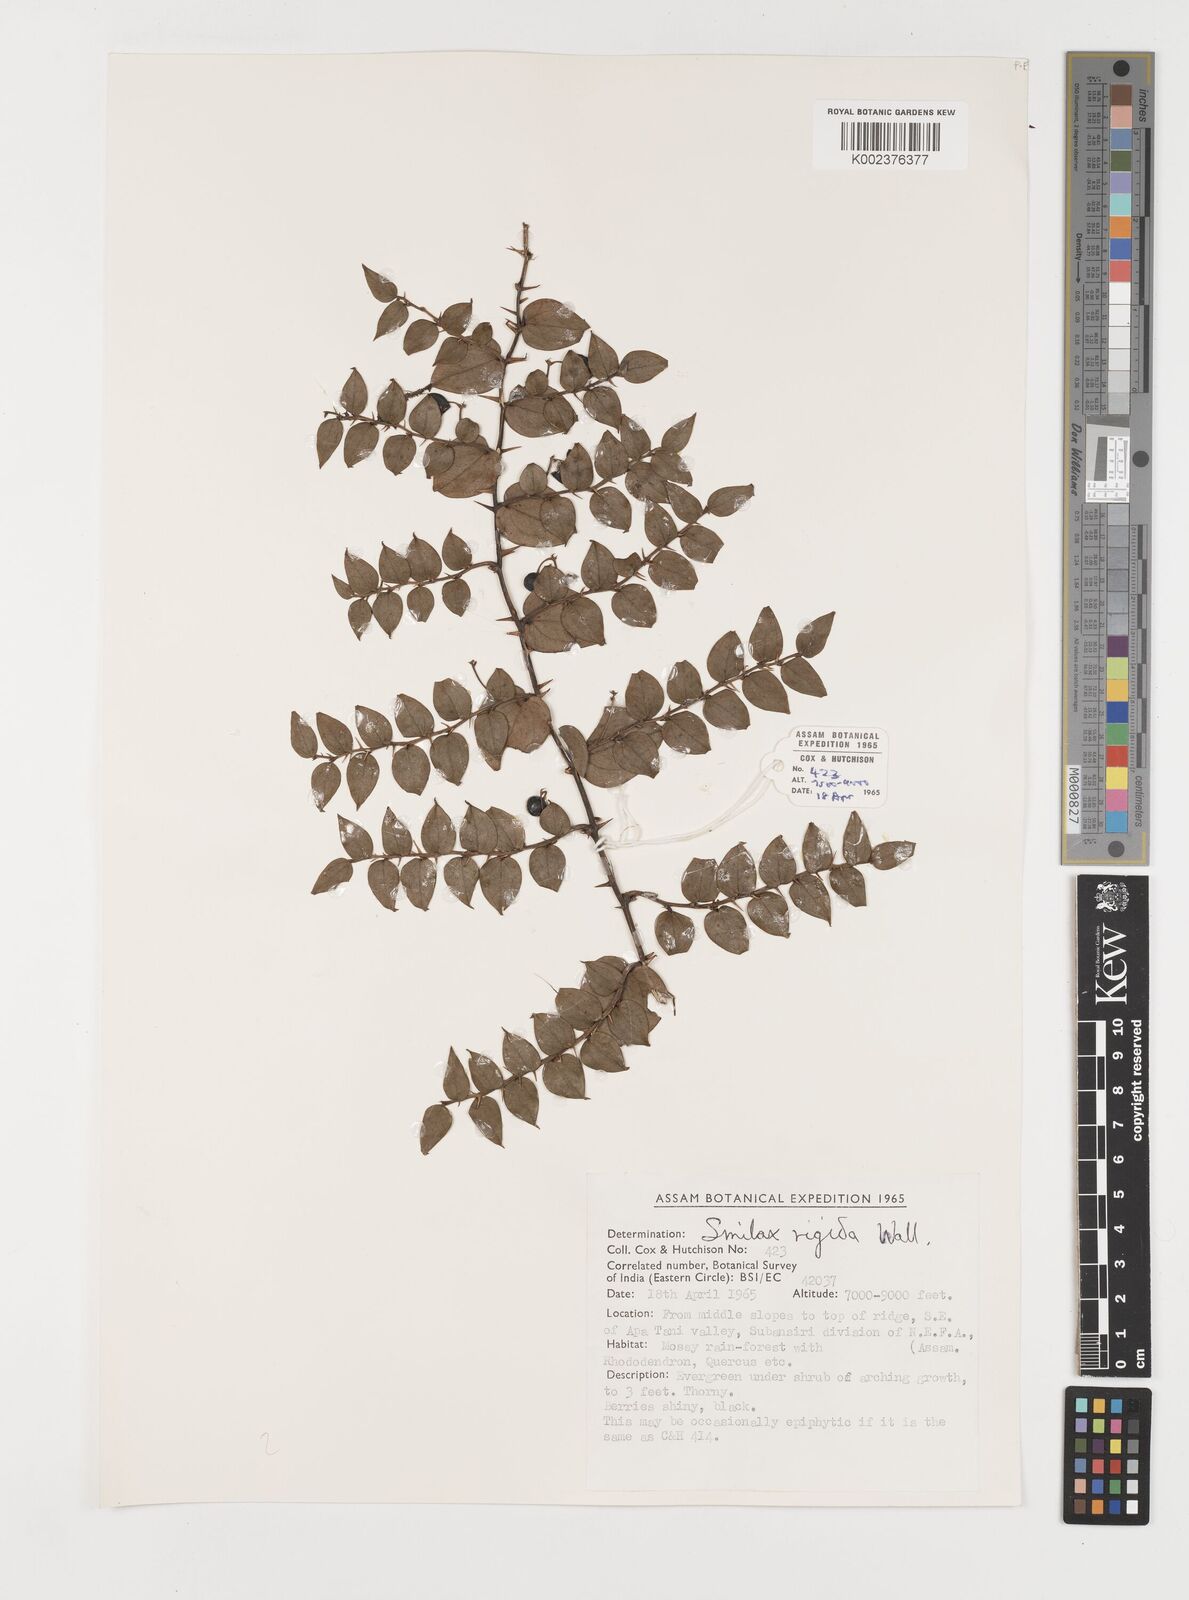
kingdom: Plantae
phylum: Tracheophyta
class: Liliopsida
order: Liliales
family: Smilacaceae
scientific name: Smilacaceae
